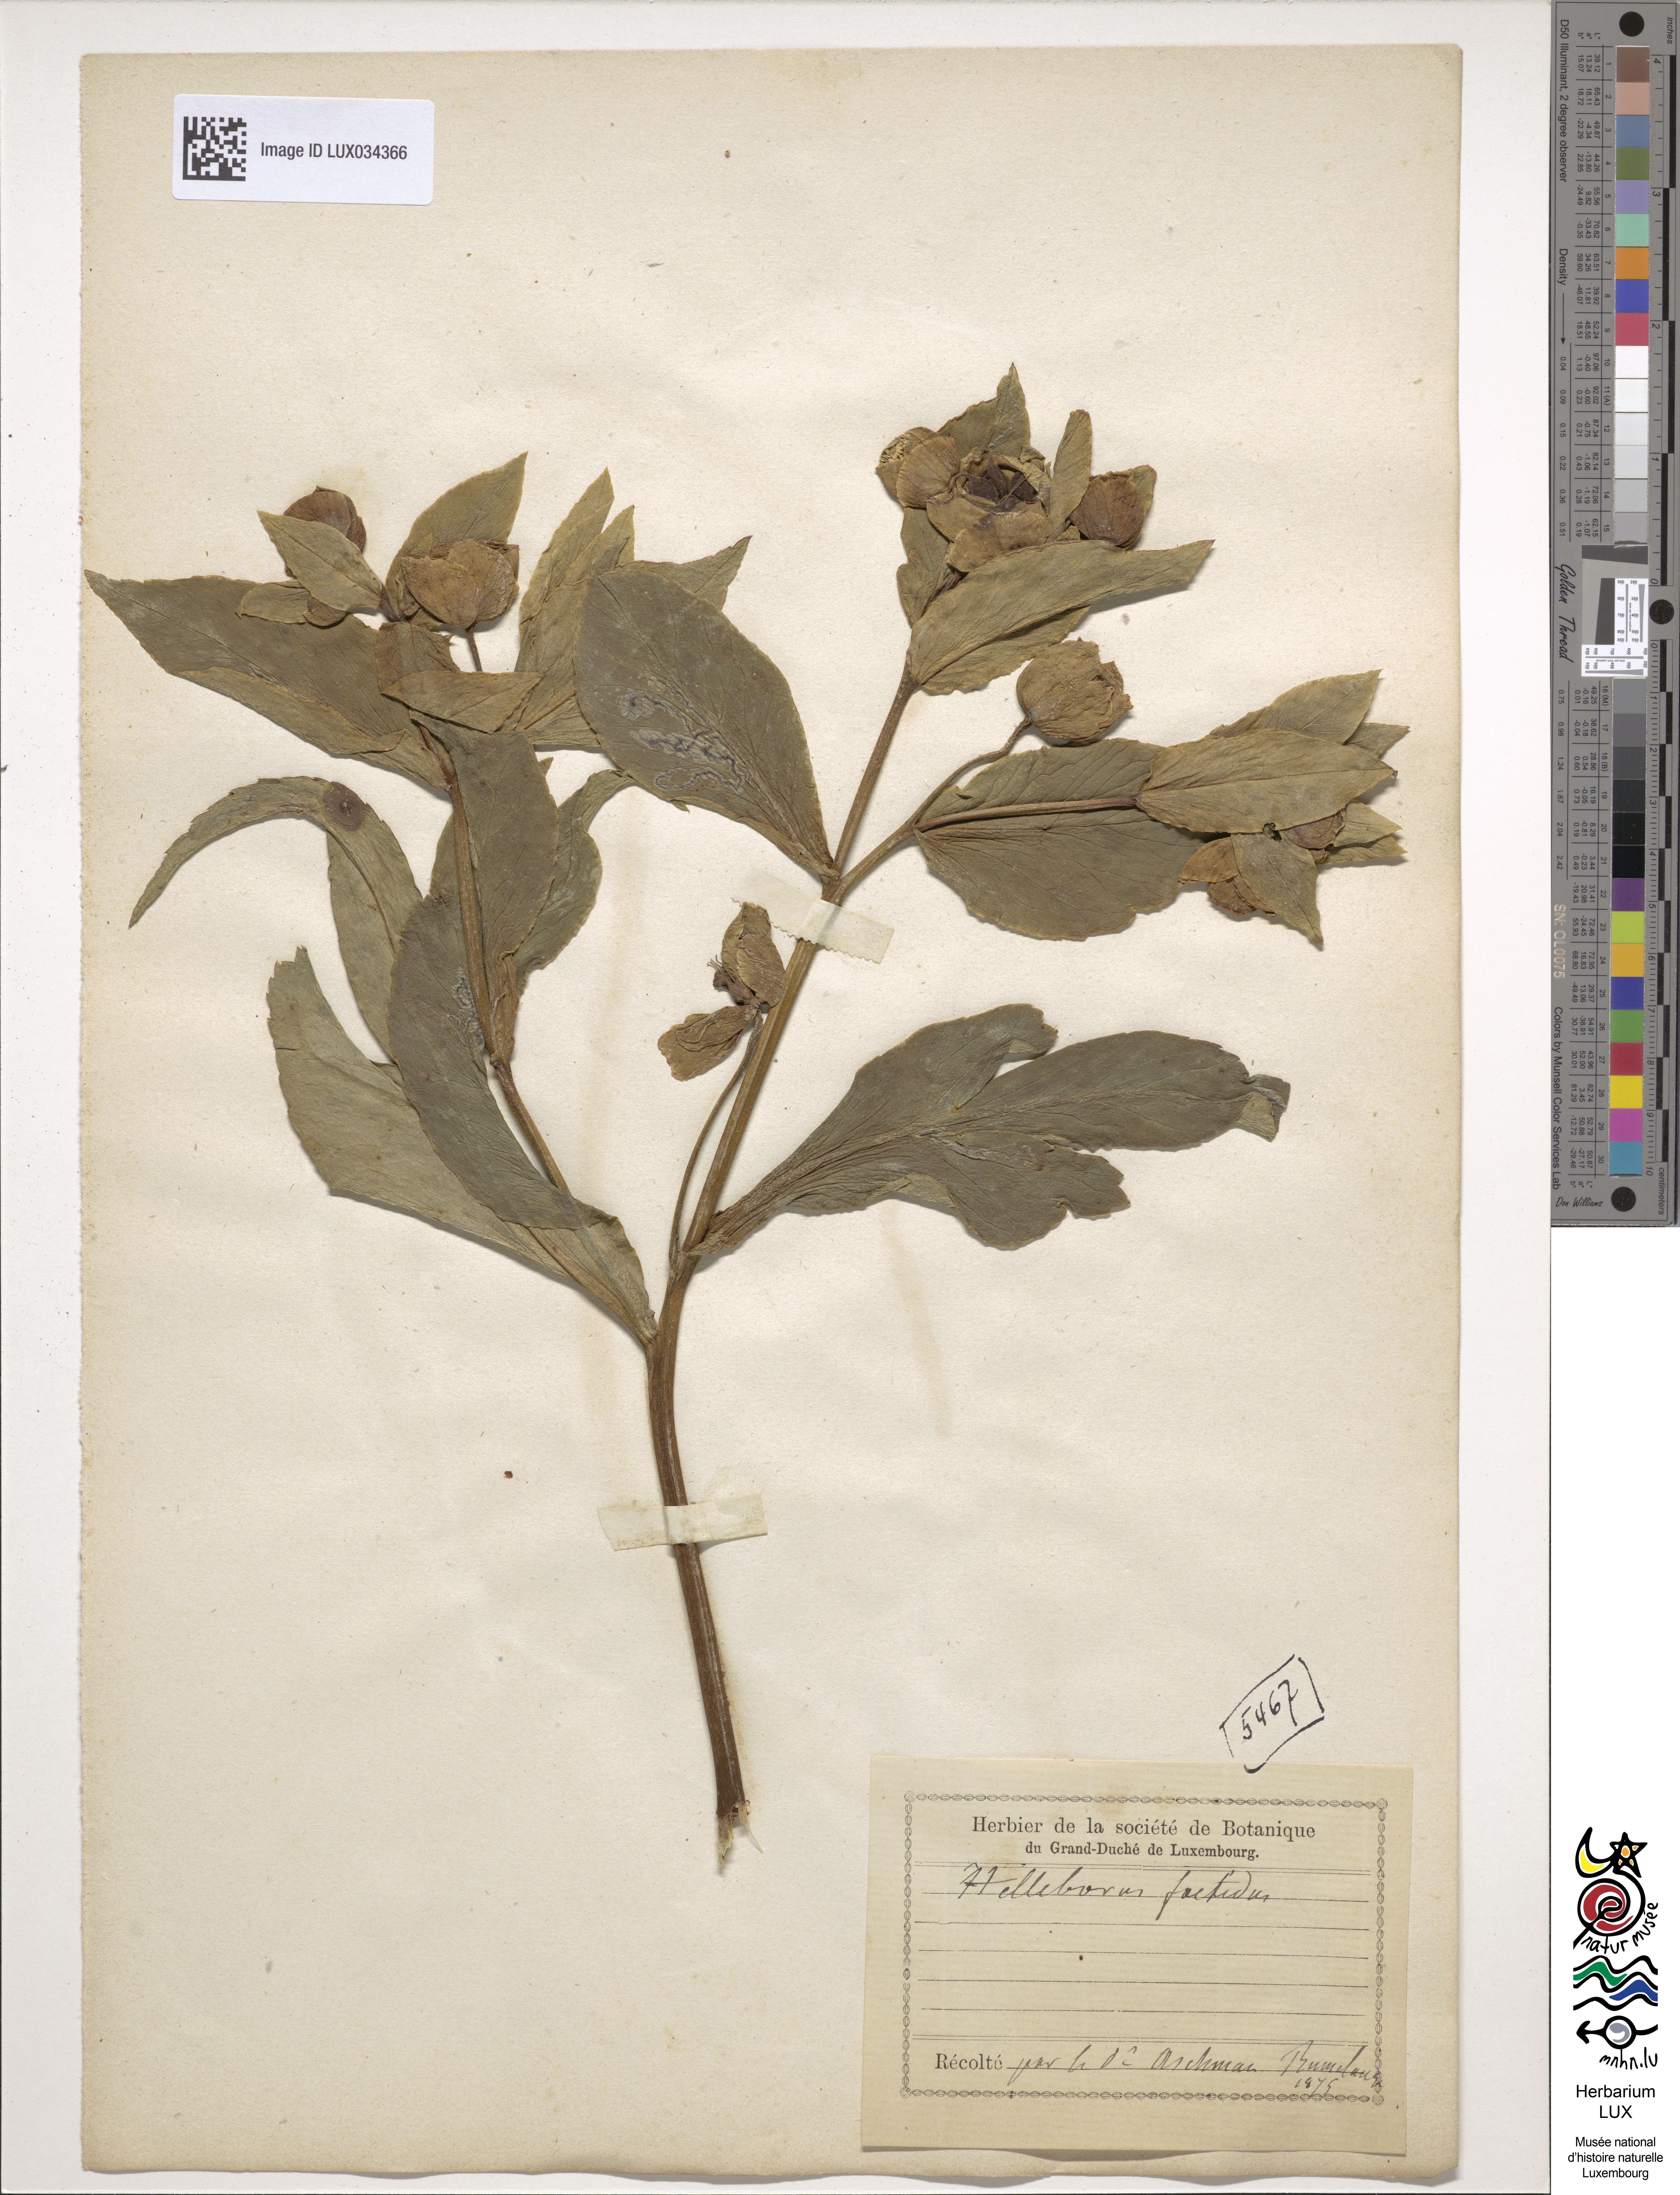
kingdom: Plantae
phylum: Tracheophyta
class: Magnoliopsida
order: Ranunculales
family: Ranunculaceae
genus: Helleborus
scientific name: Helleborus foetidus
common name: Stinking hellebore
